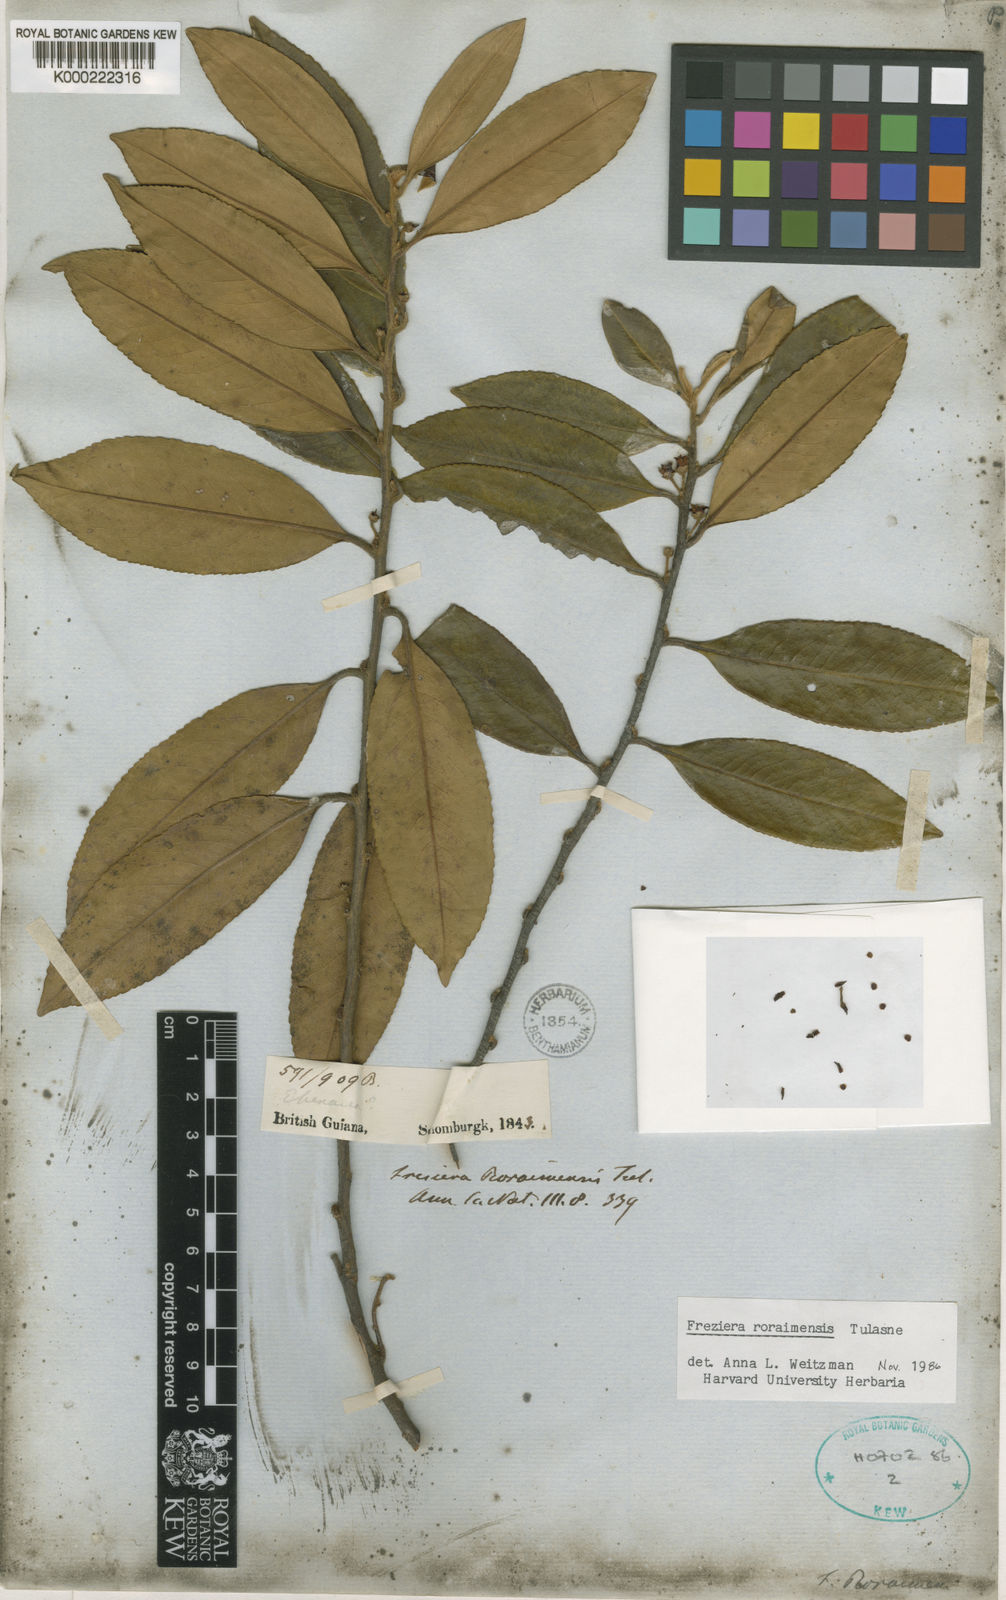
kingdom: Plantae
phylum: Tracheophyta
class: Magnoliopsida
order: Ericales
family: Pentaphylacaceae
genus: Freziera
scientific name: Freziera roraimensis
